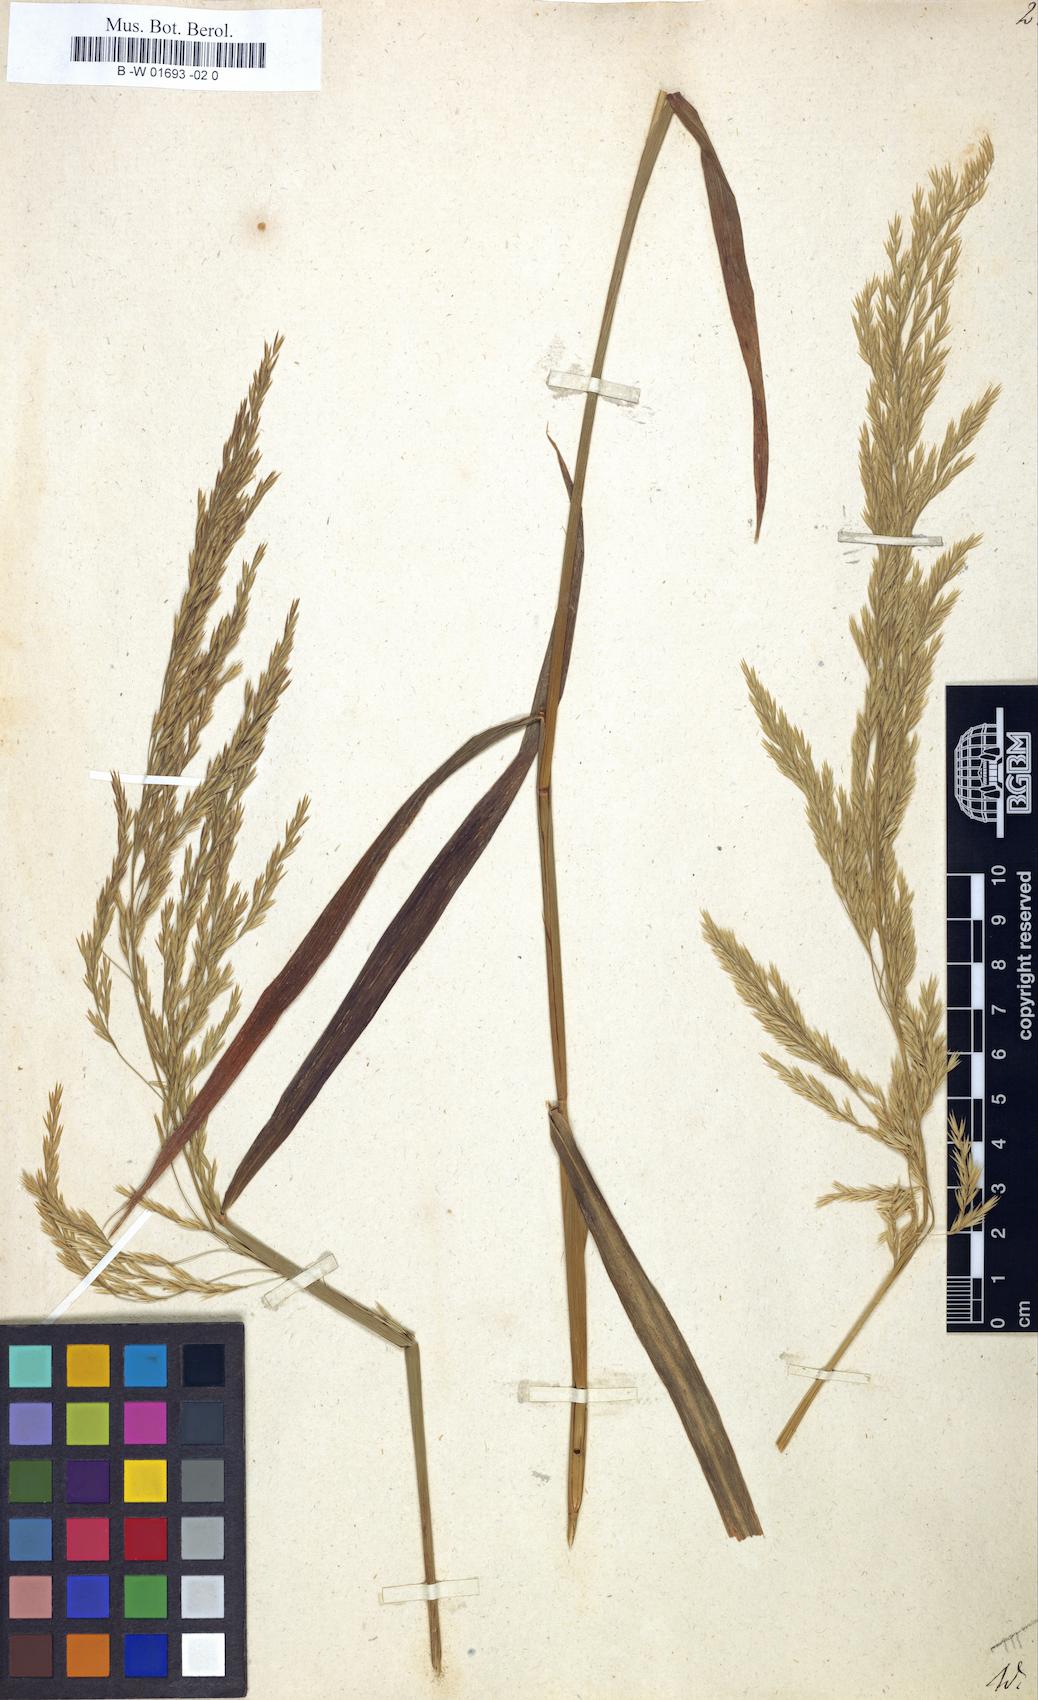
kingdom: Plantae
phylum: Tracheophyta
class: Liliopsida
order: Poales
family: Poaceae
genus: Cinna
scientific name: Cinna arundinacea
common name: Stout woodreed
